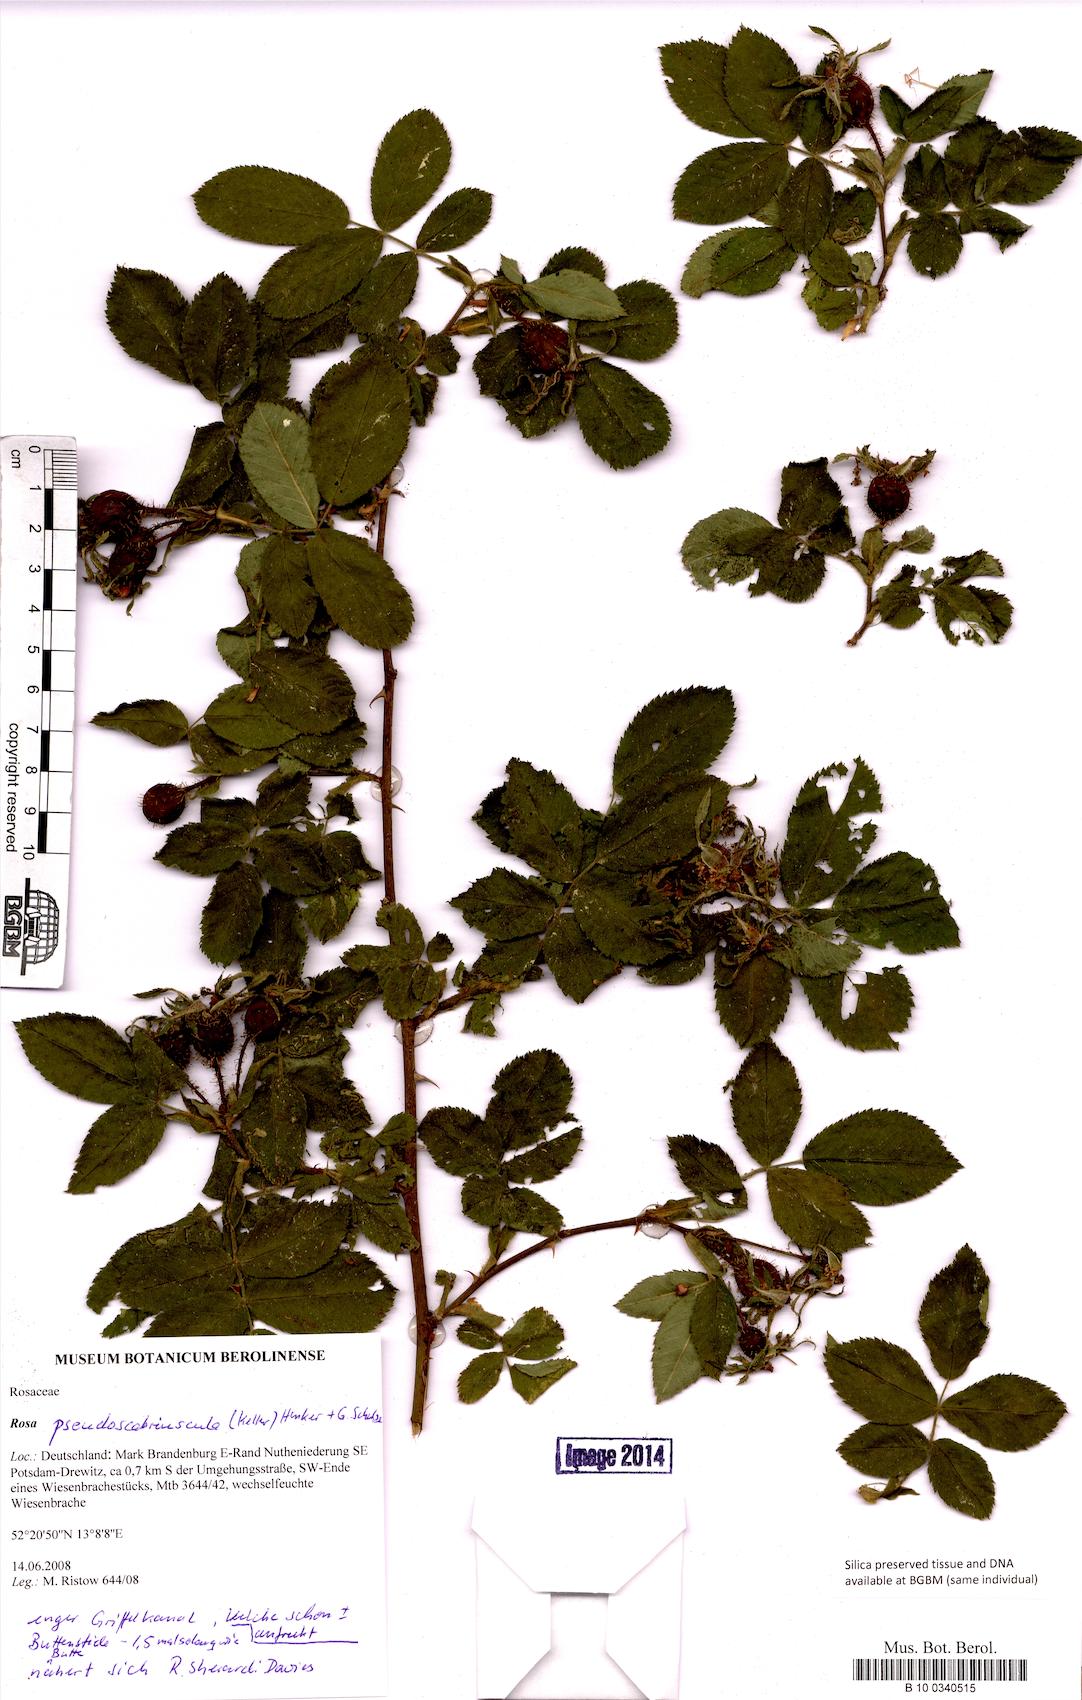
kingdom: Plantae
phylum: Tracheophyta
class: Magnoliopsida
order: Rosales
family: Rosaceae
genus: Rosa
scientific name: Rosa
